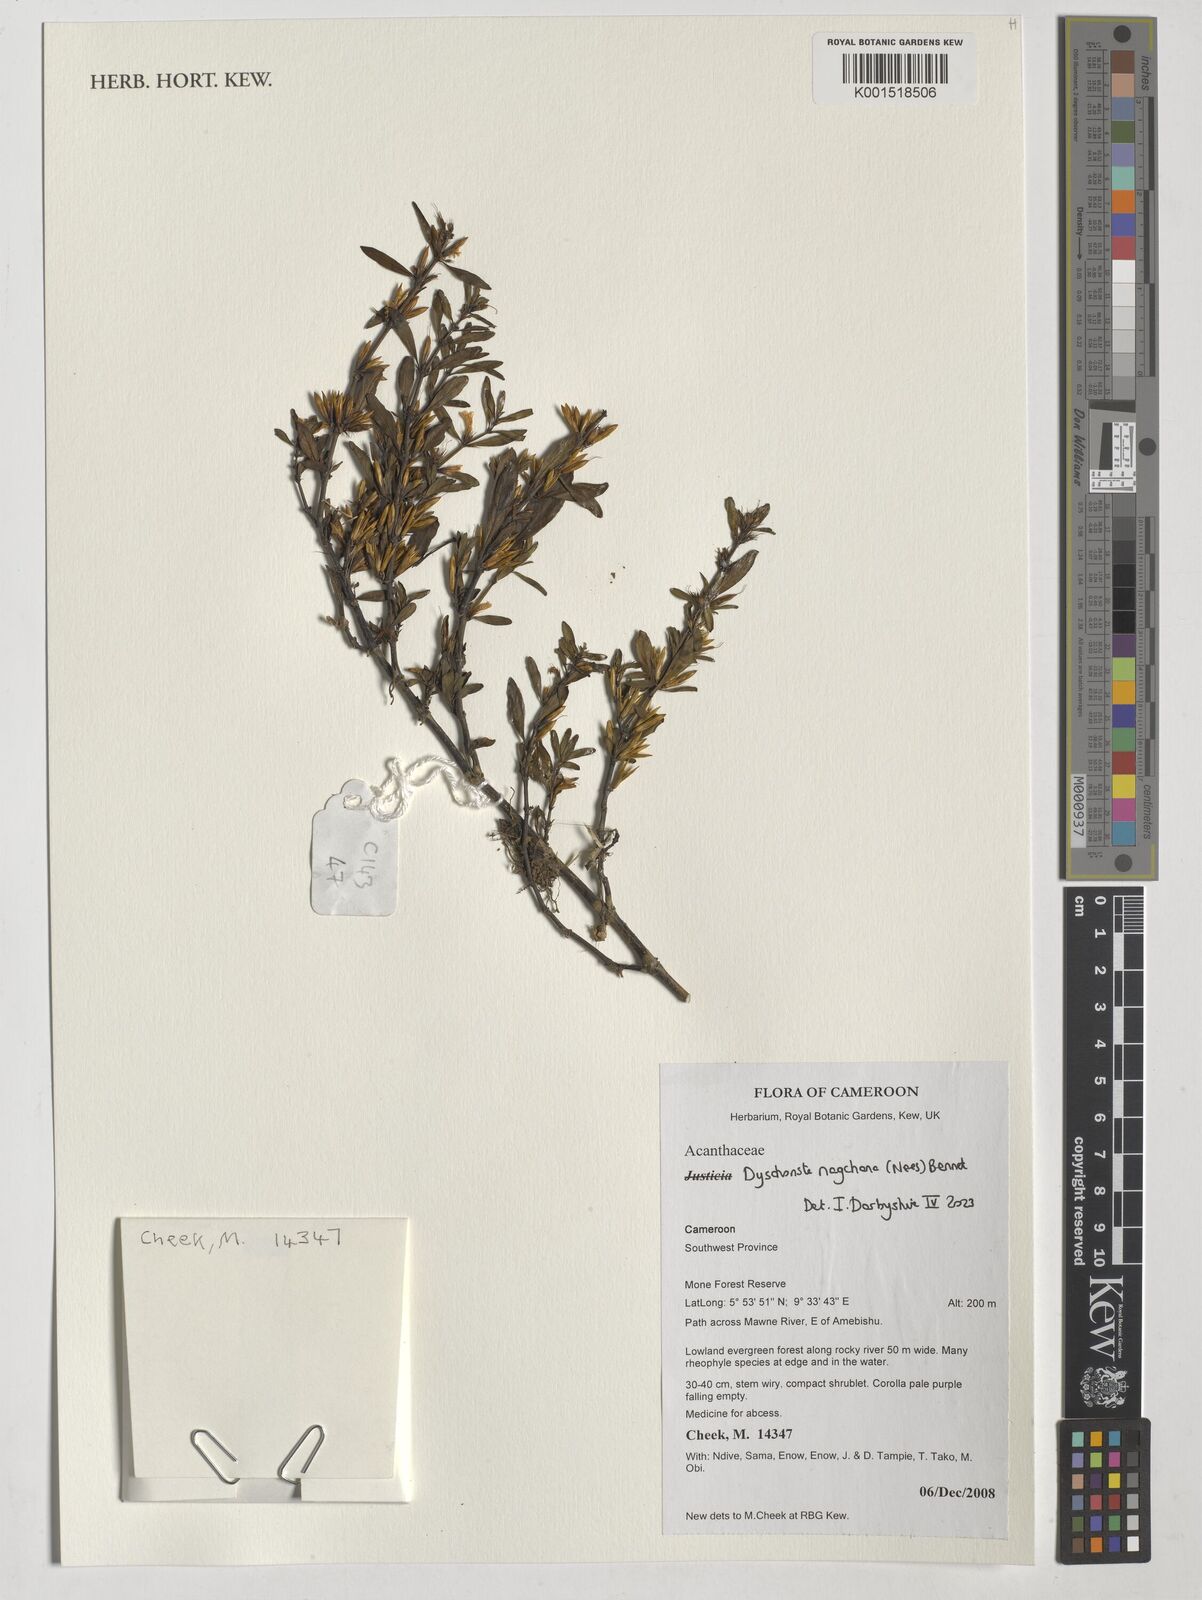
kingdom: Plantae
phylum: Tracheophyta
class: Magnoliopsida
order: Lamiales
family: Acanthaceae
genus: Dyschoriste
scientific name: Dyschoriste nagchana
